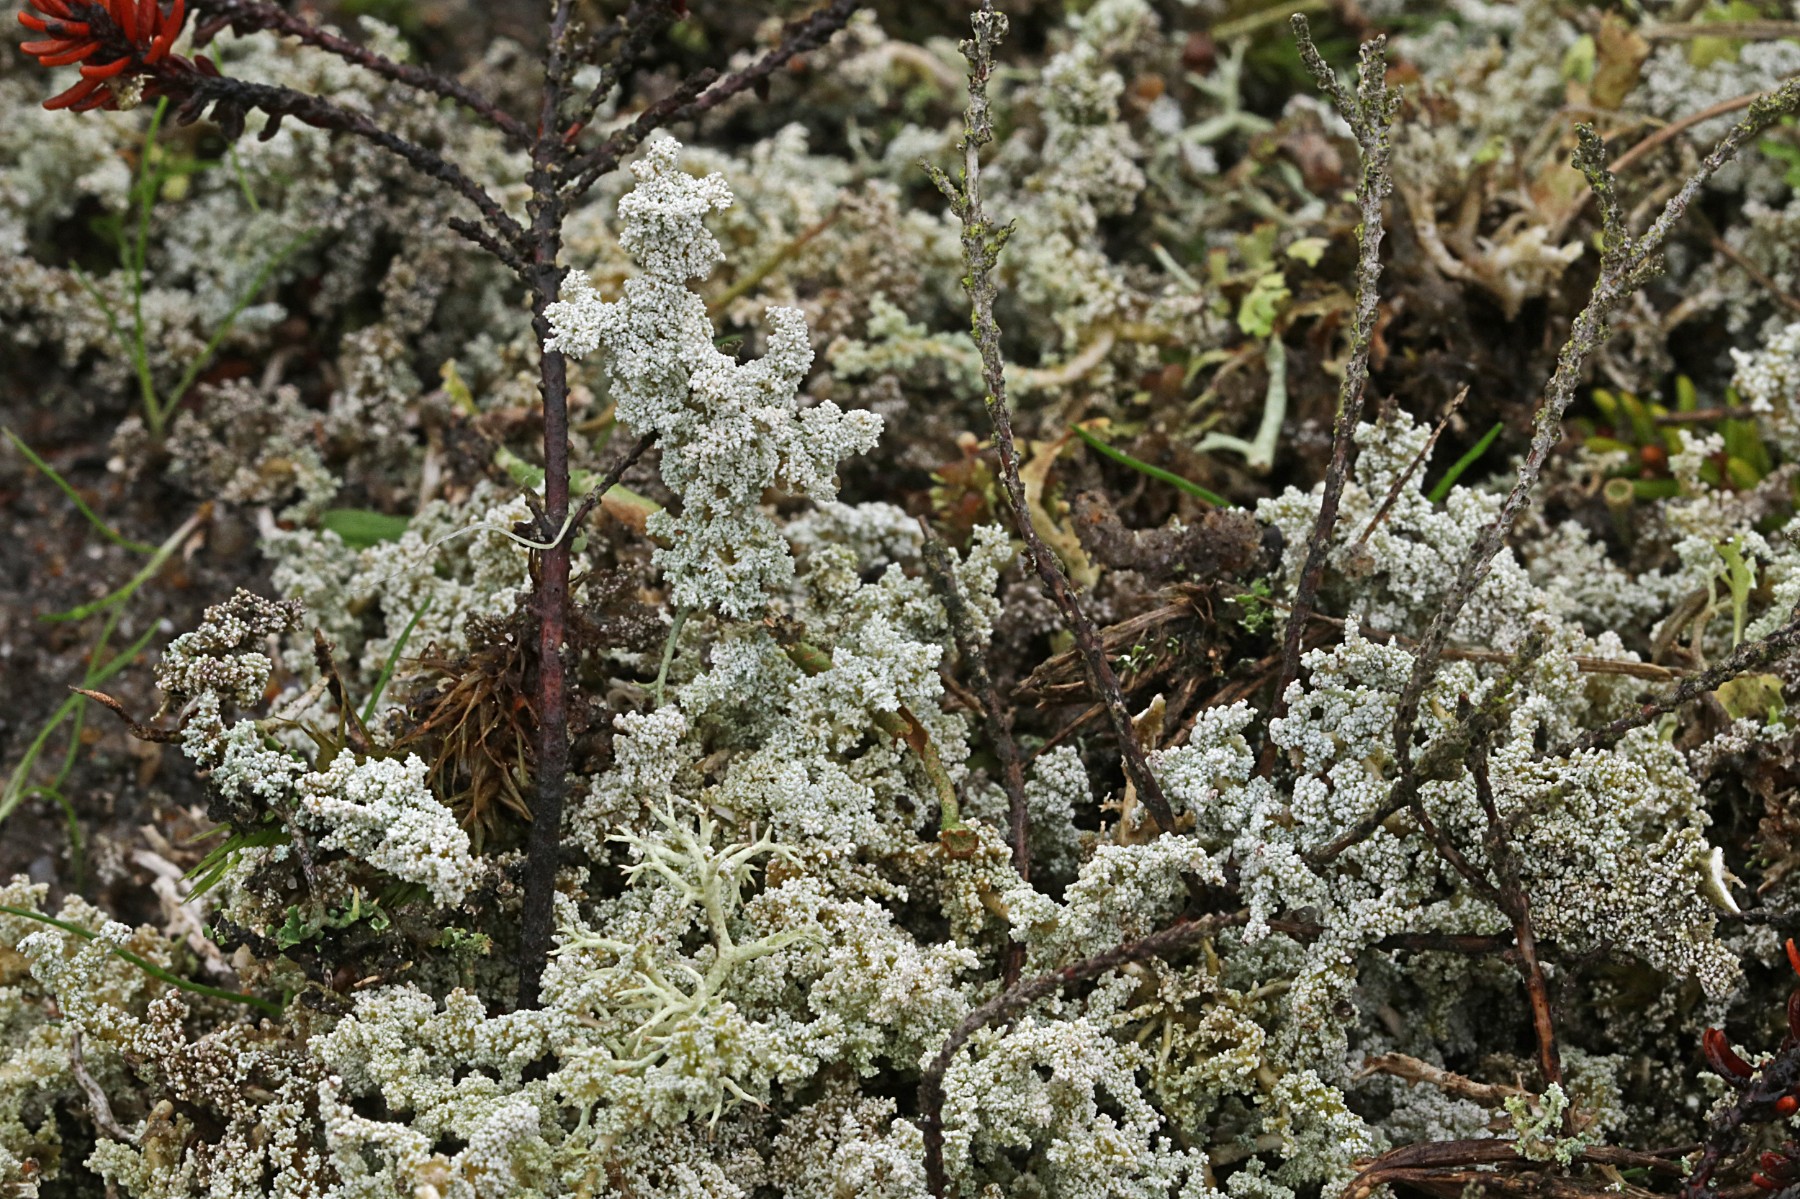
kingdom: Fungi
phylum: Ascomycota
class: Lecanoromycetes
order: Lecanorales
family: Stereocaulaceae
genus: Stereocaulon
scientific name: Stereocaulon saxatile
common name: klit-korallav
